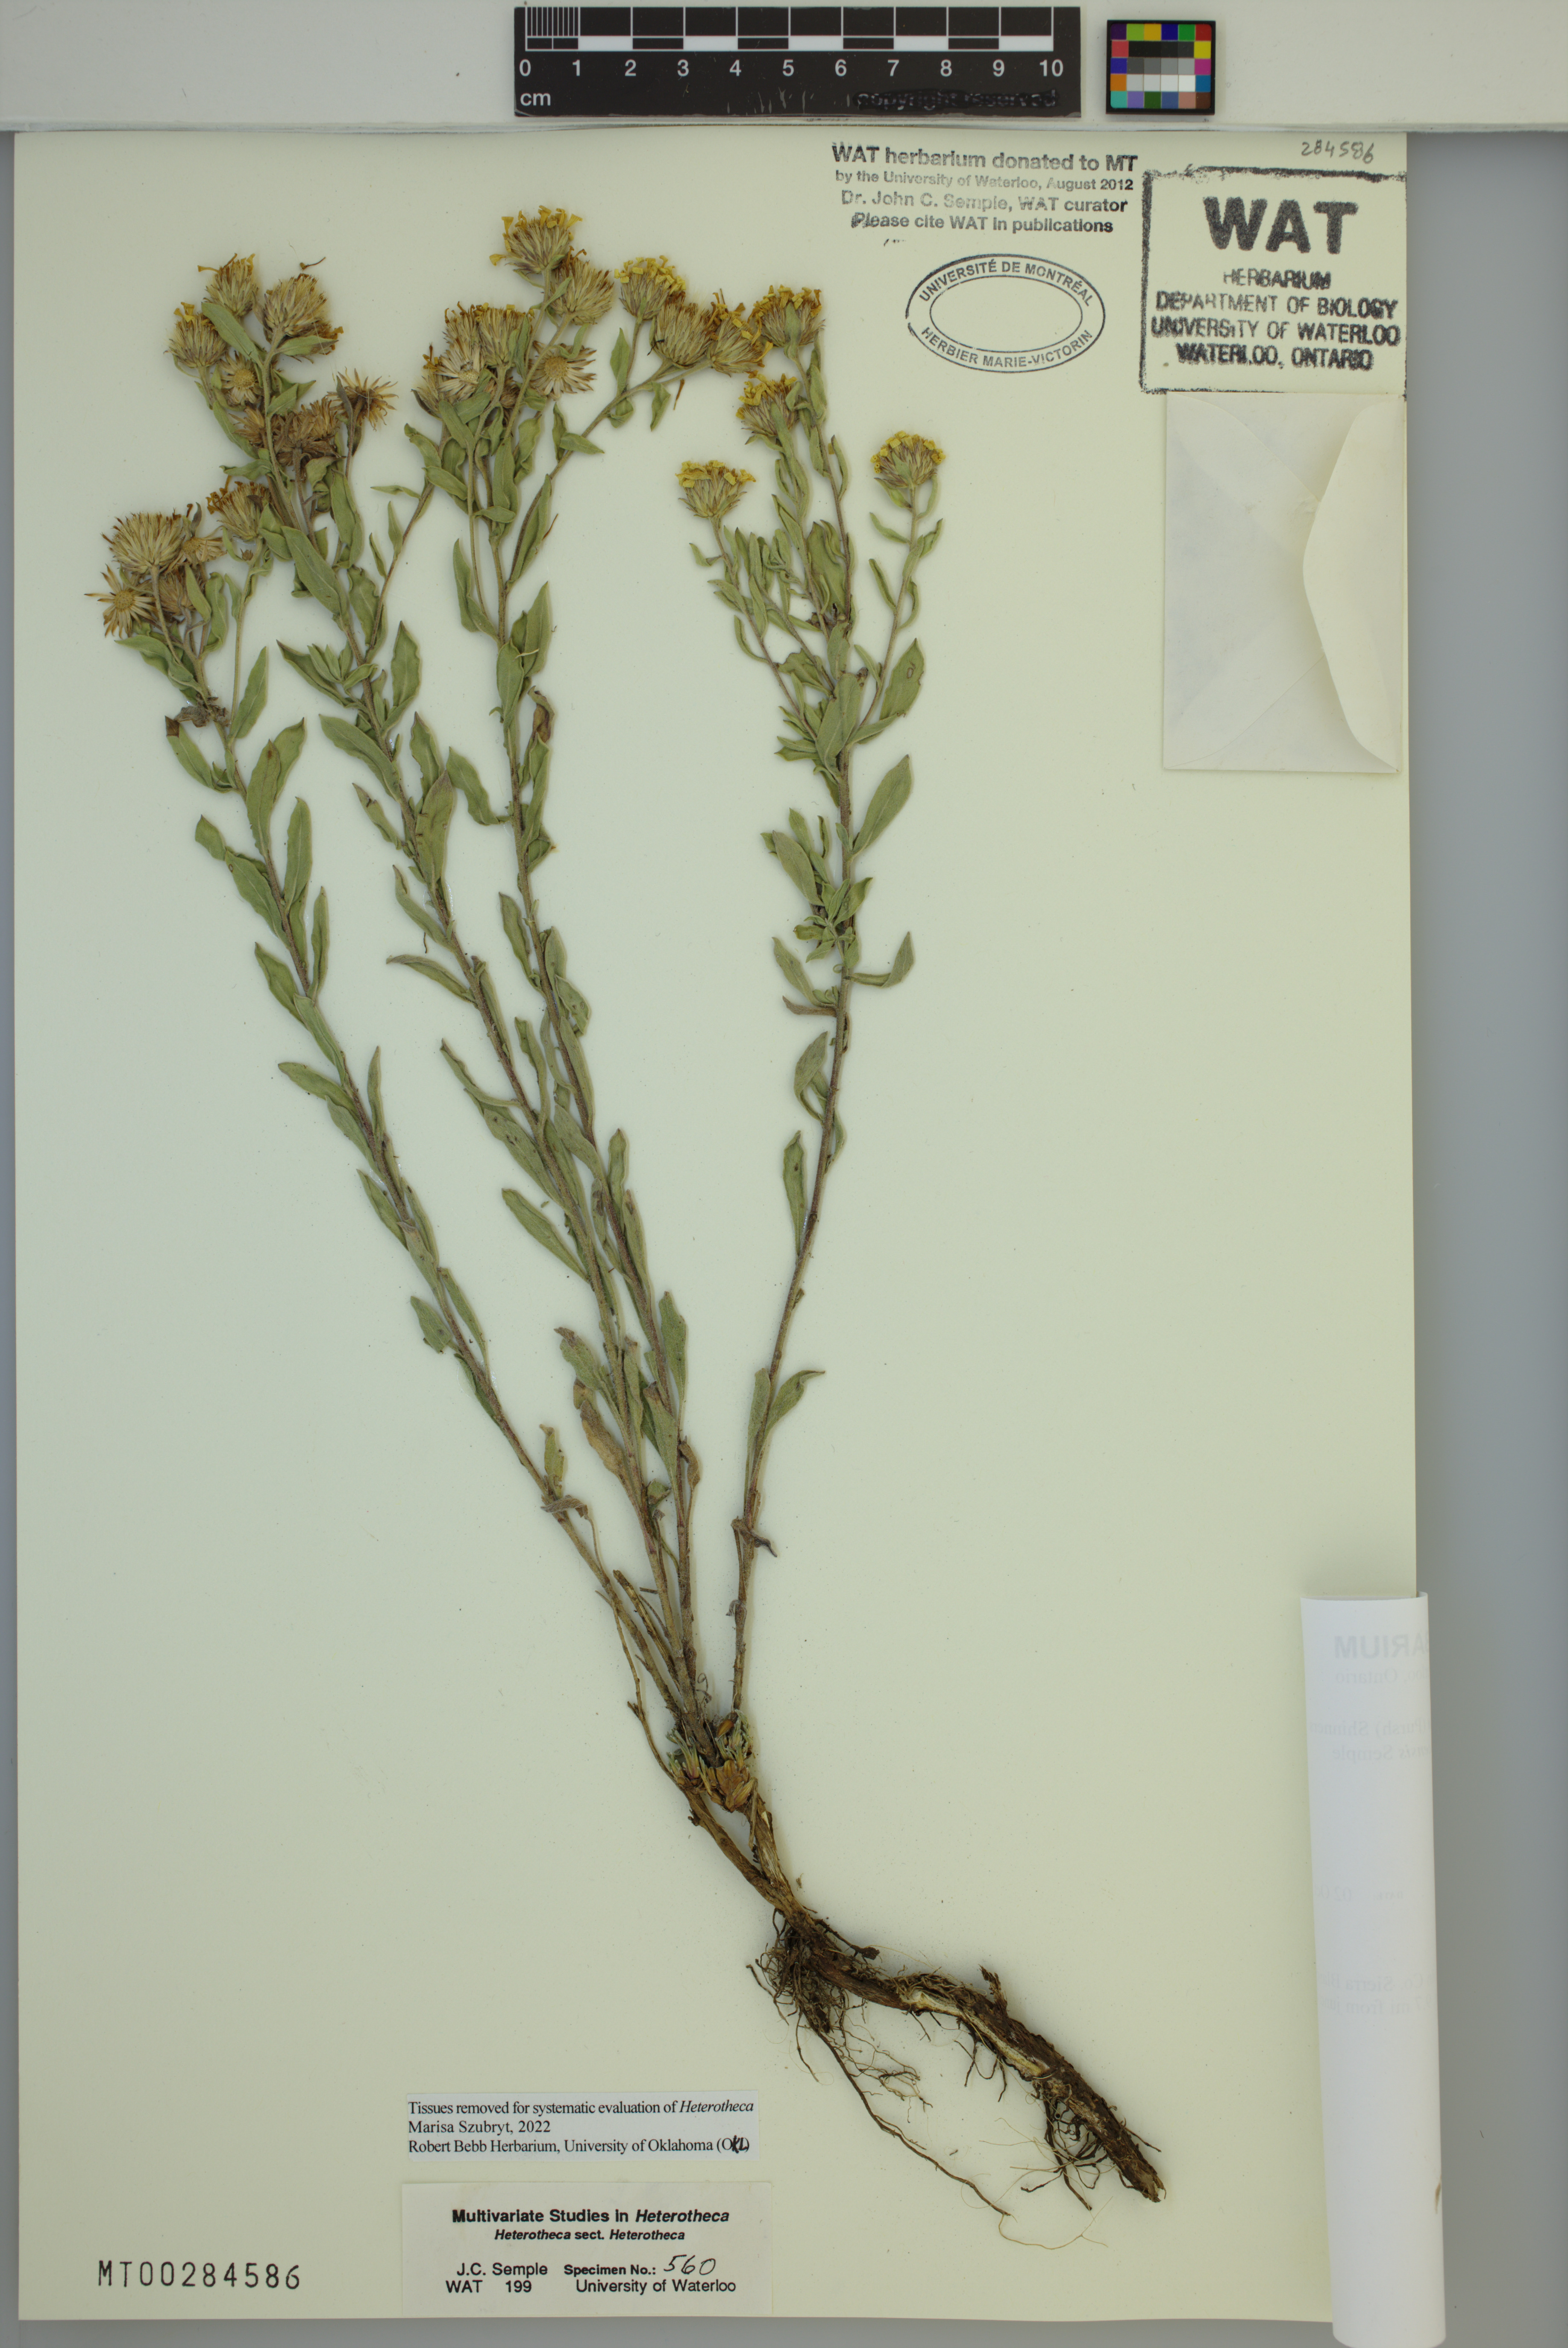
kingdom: Plantae
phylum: Tracheophyta
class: Magnoliopsida
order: Asterales
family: Asteraceae
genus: Heterotheca
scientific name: Heterotheca sierrablancensis
